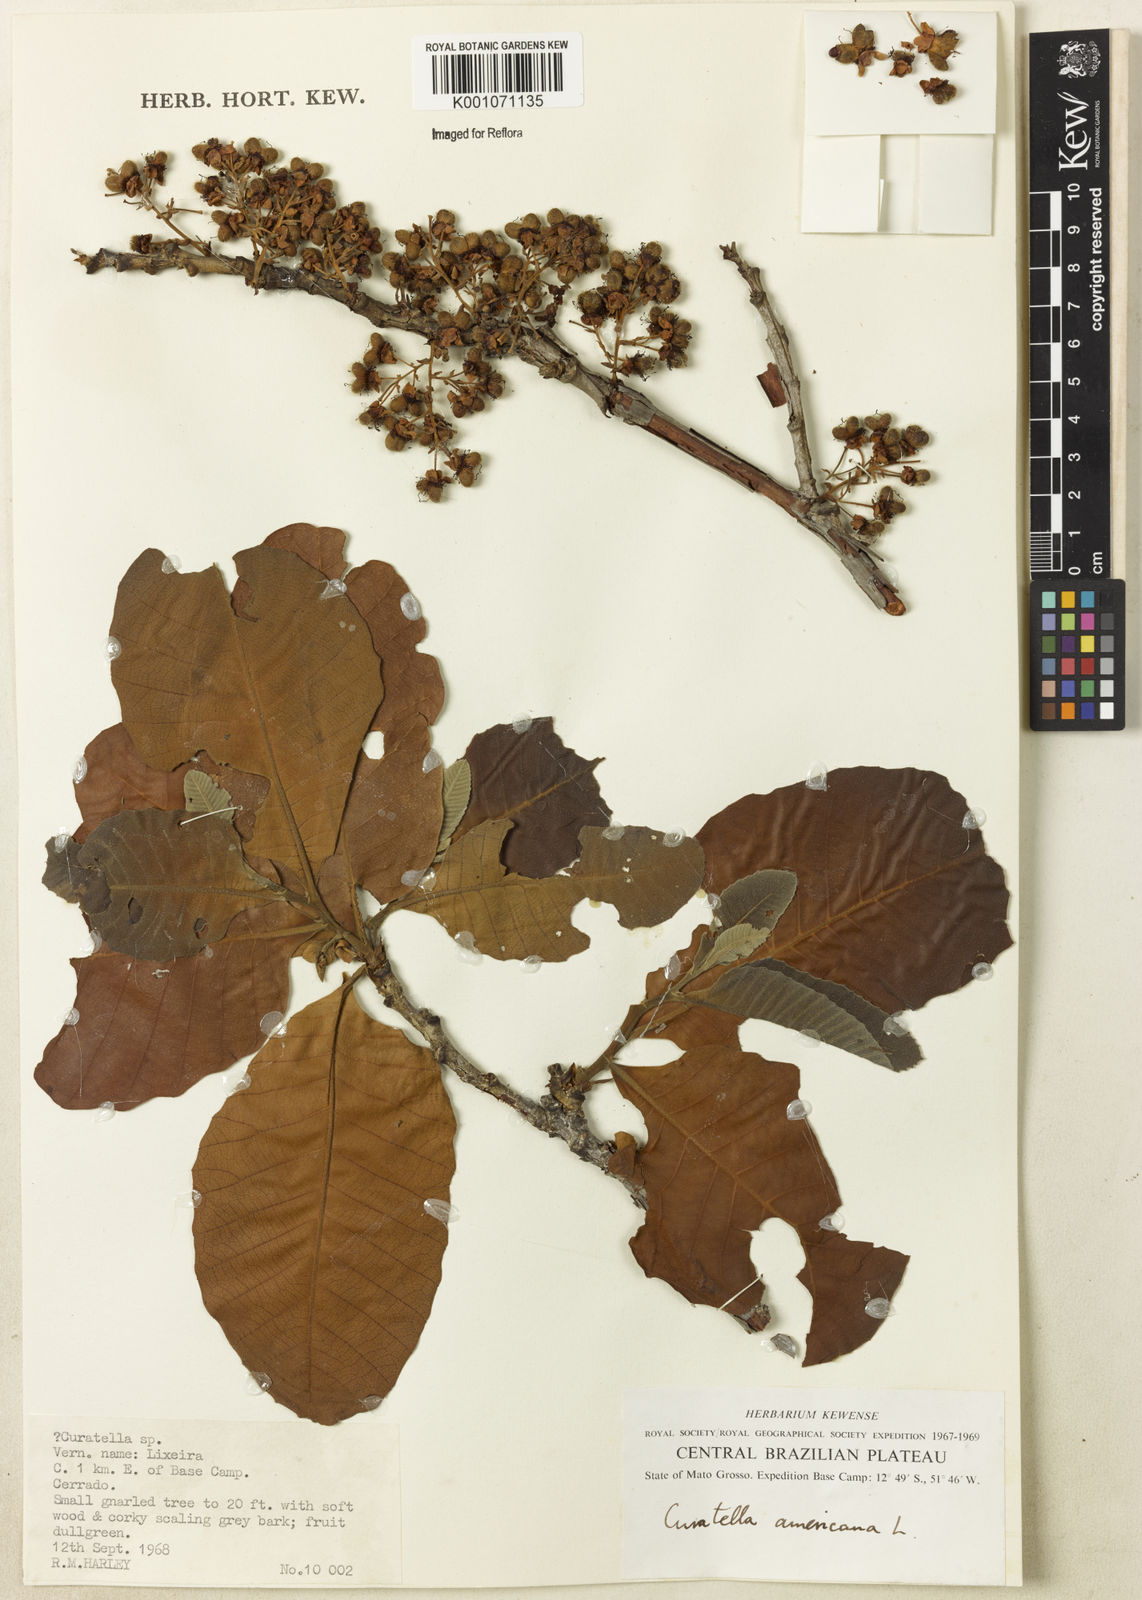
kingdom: Plantae
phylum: Tracheophyta
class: Magnoliopsida
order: Dilleniales
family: Dilleniaceae
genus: Curatella
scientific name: Curatella americana
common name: Sandpaper tree
